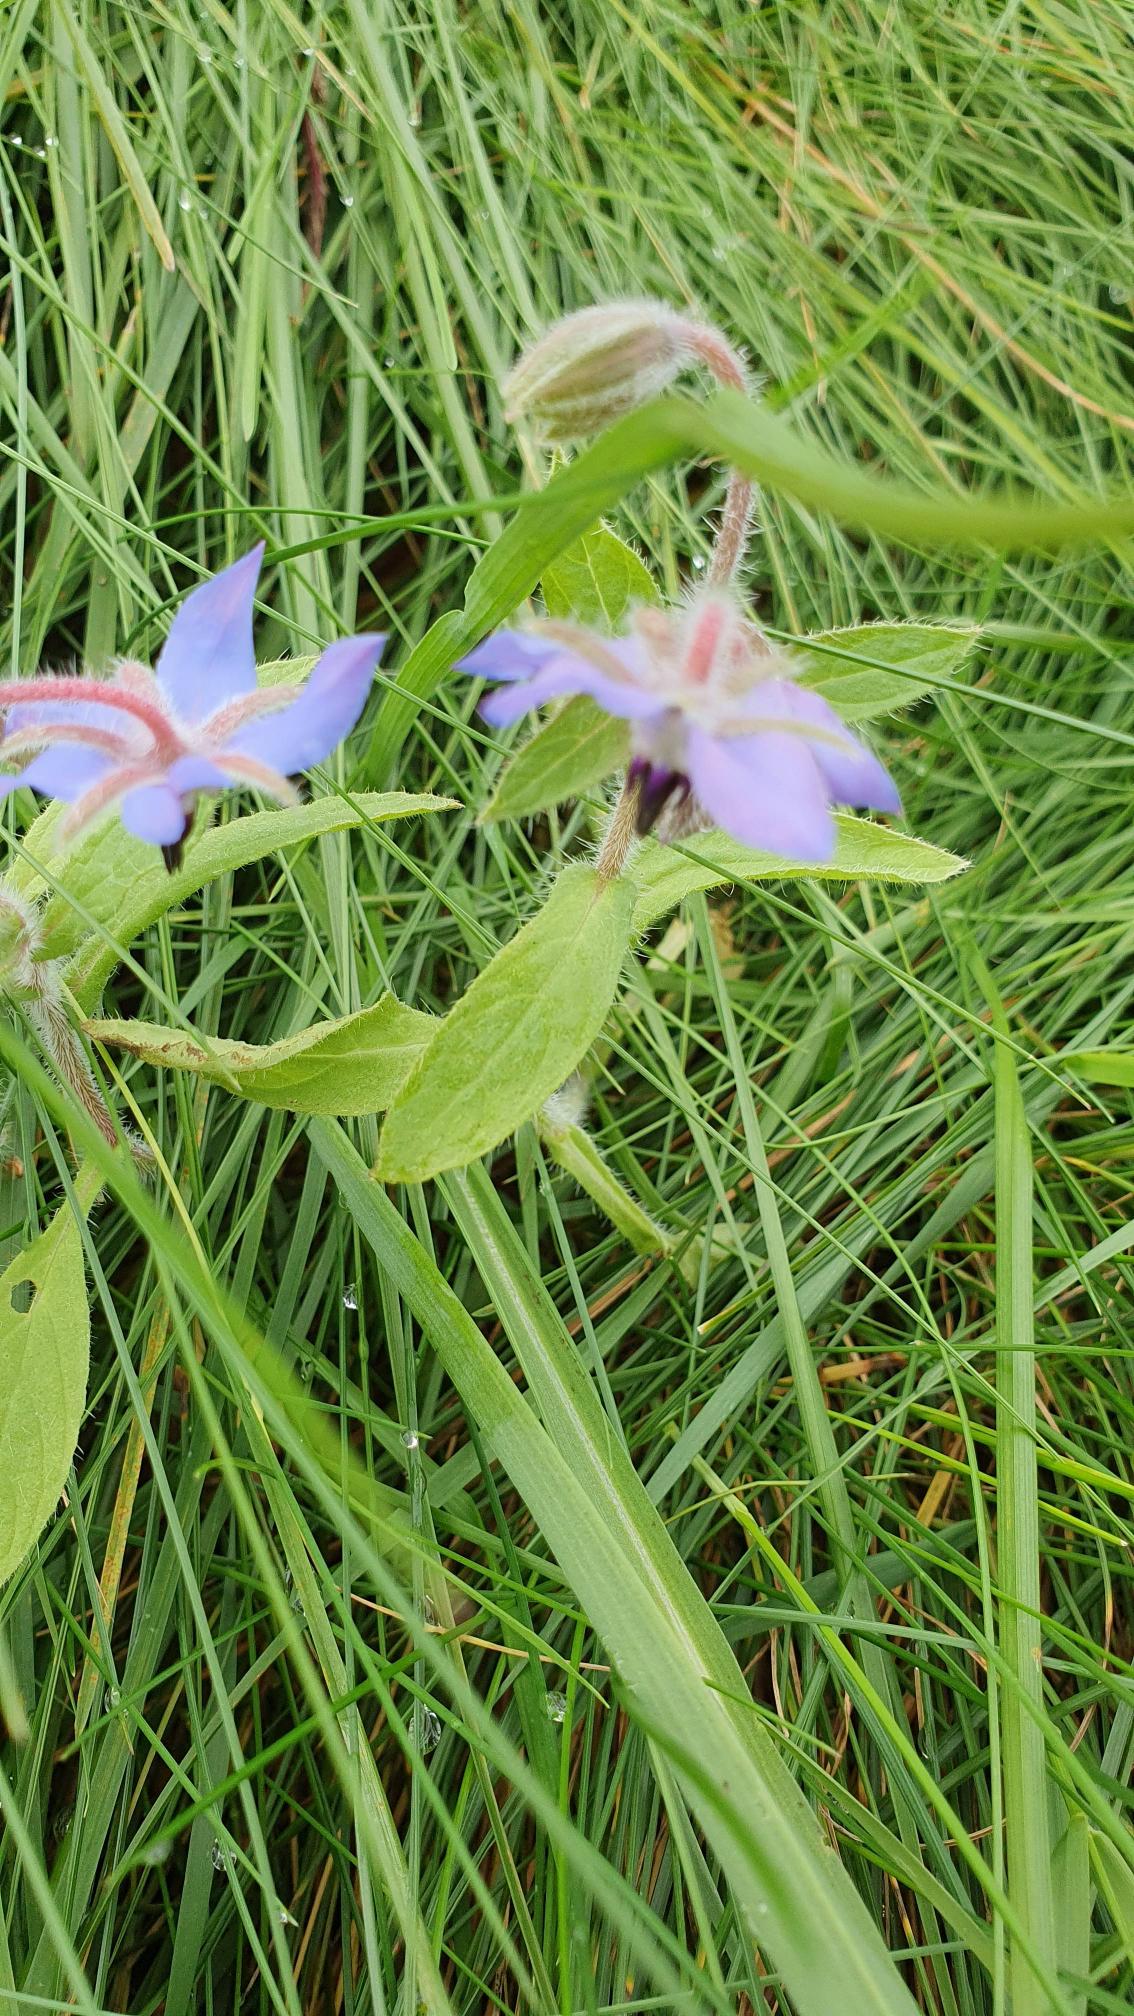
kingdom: Plantae
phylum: Tracheophyta
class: Magnoliopsida
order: Boraginales
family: Boraginaceae
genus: Borago
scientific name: Borago officinalis
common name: Hjulkrone
